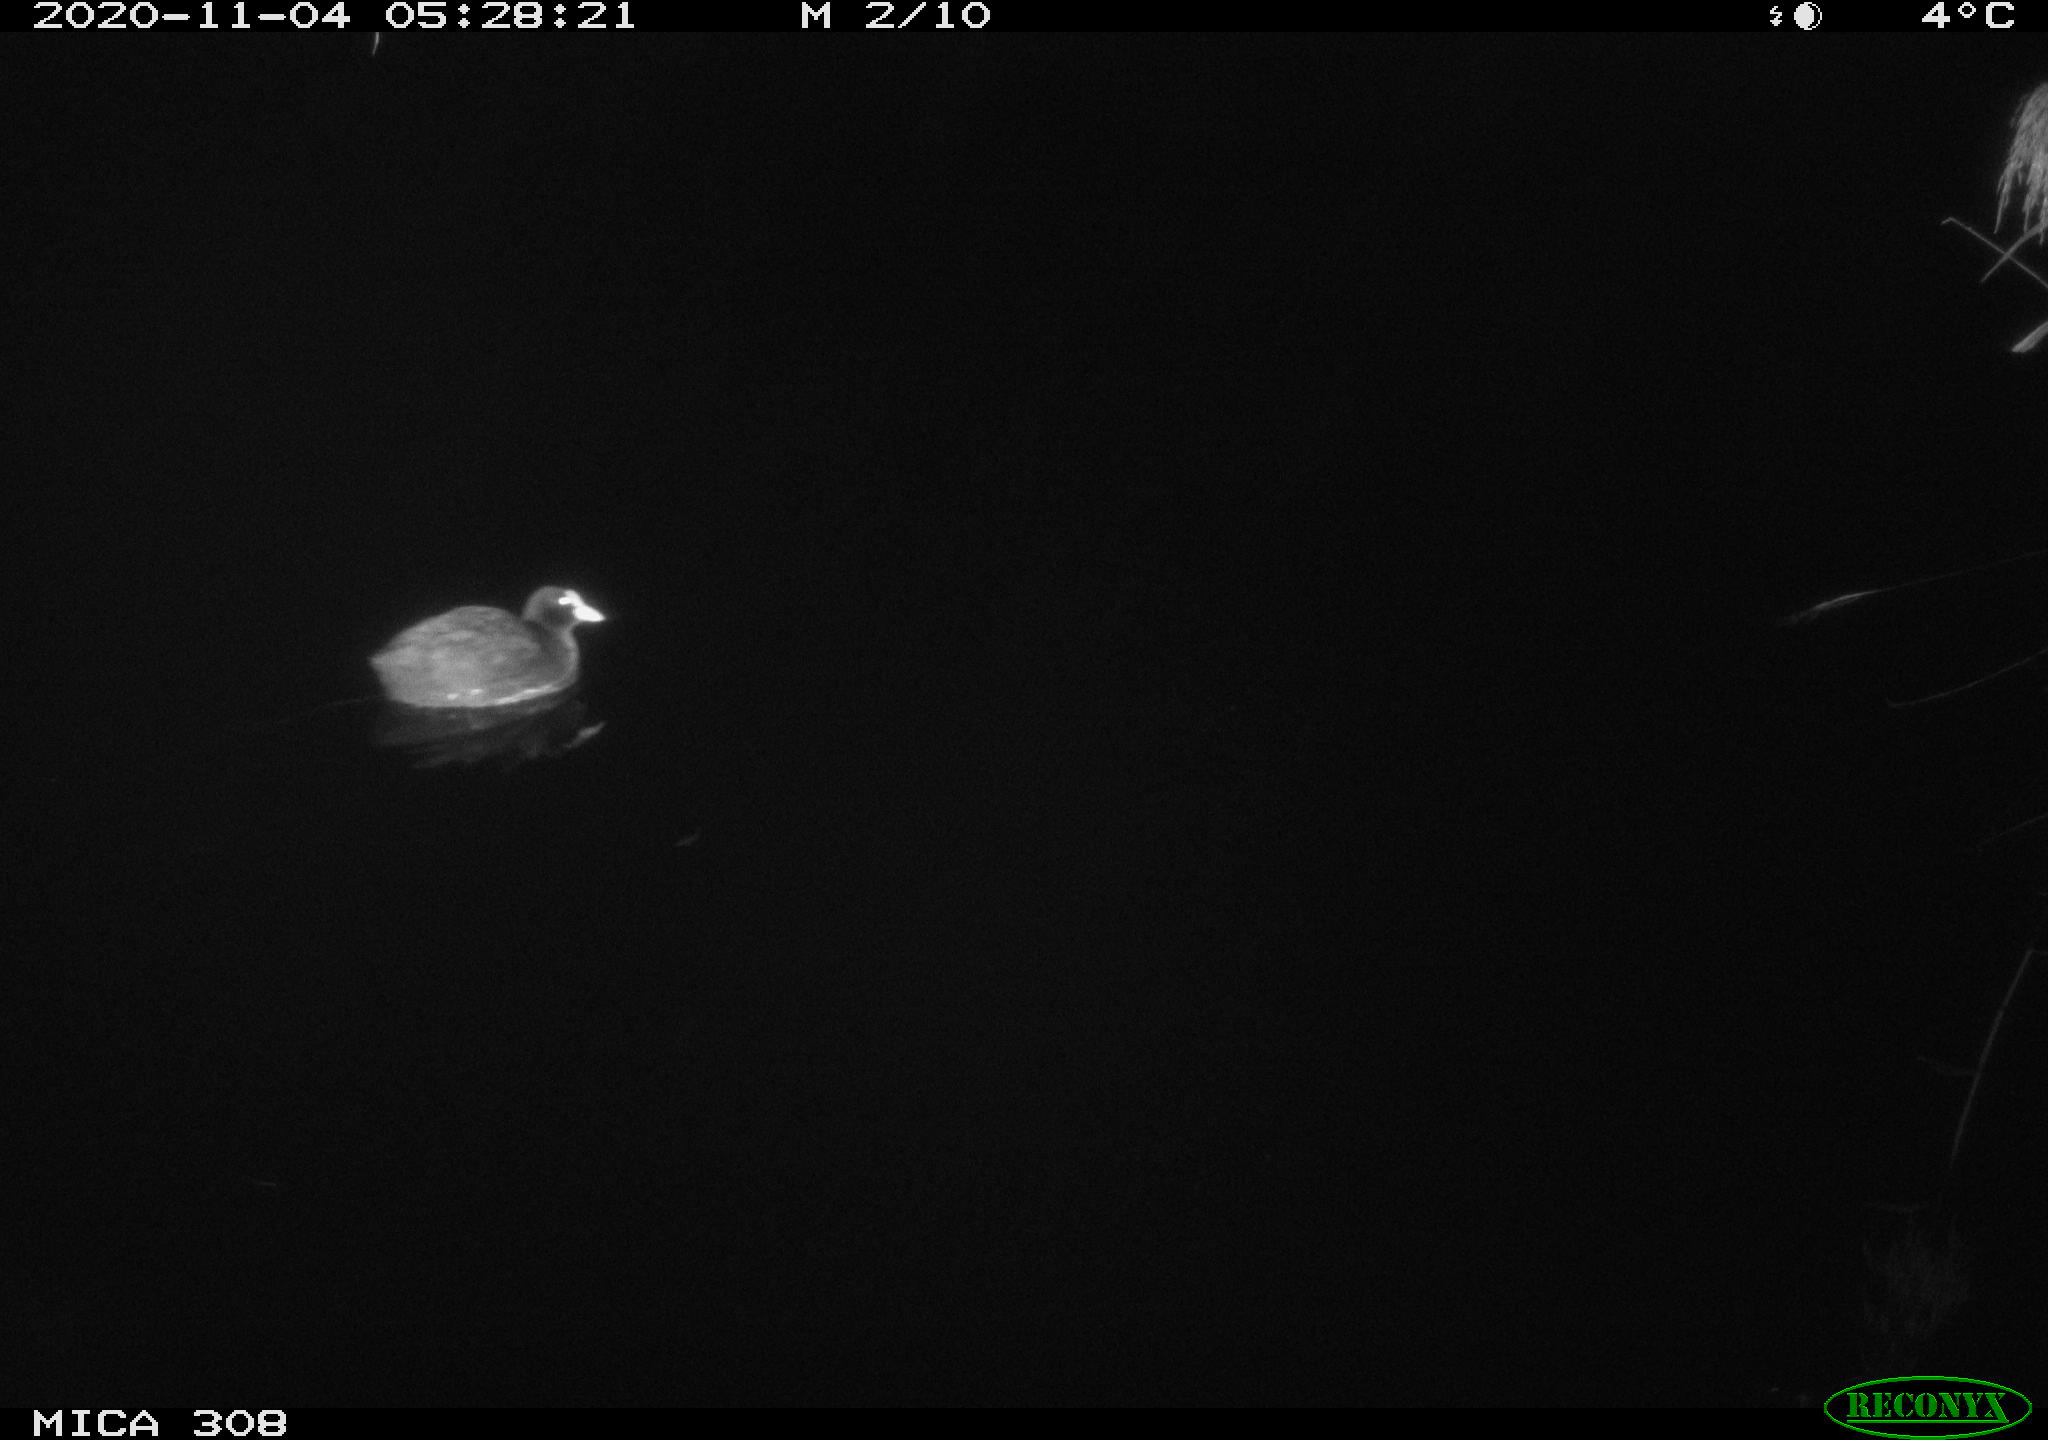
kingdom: Animalia
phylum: Chordata
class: Aves
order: Gruiformes
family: Rallidae
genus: Fulica
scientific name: Fulica atra
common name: Eurasian coot
